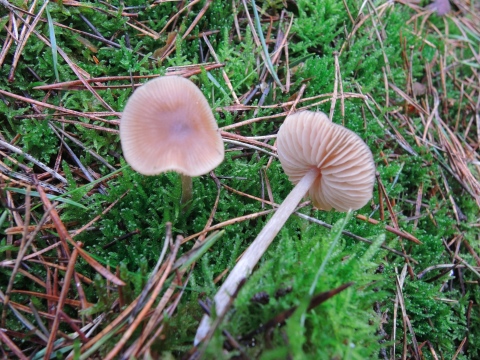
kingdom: Fungi
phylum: Basidiomycota
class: Agaricomycetes
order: Agaricales
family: Entolomataceae
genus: Entoloma
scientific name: Entoloma cetratum
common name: voks-rødblad
